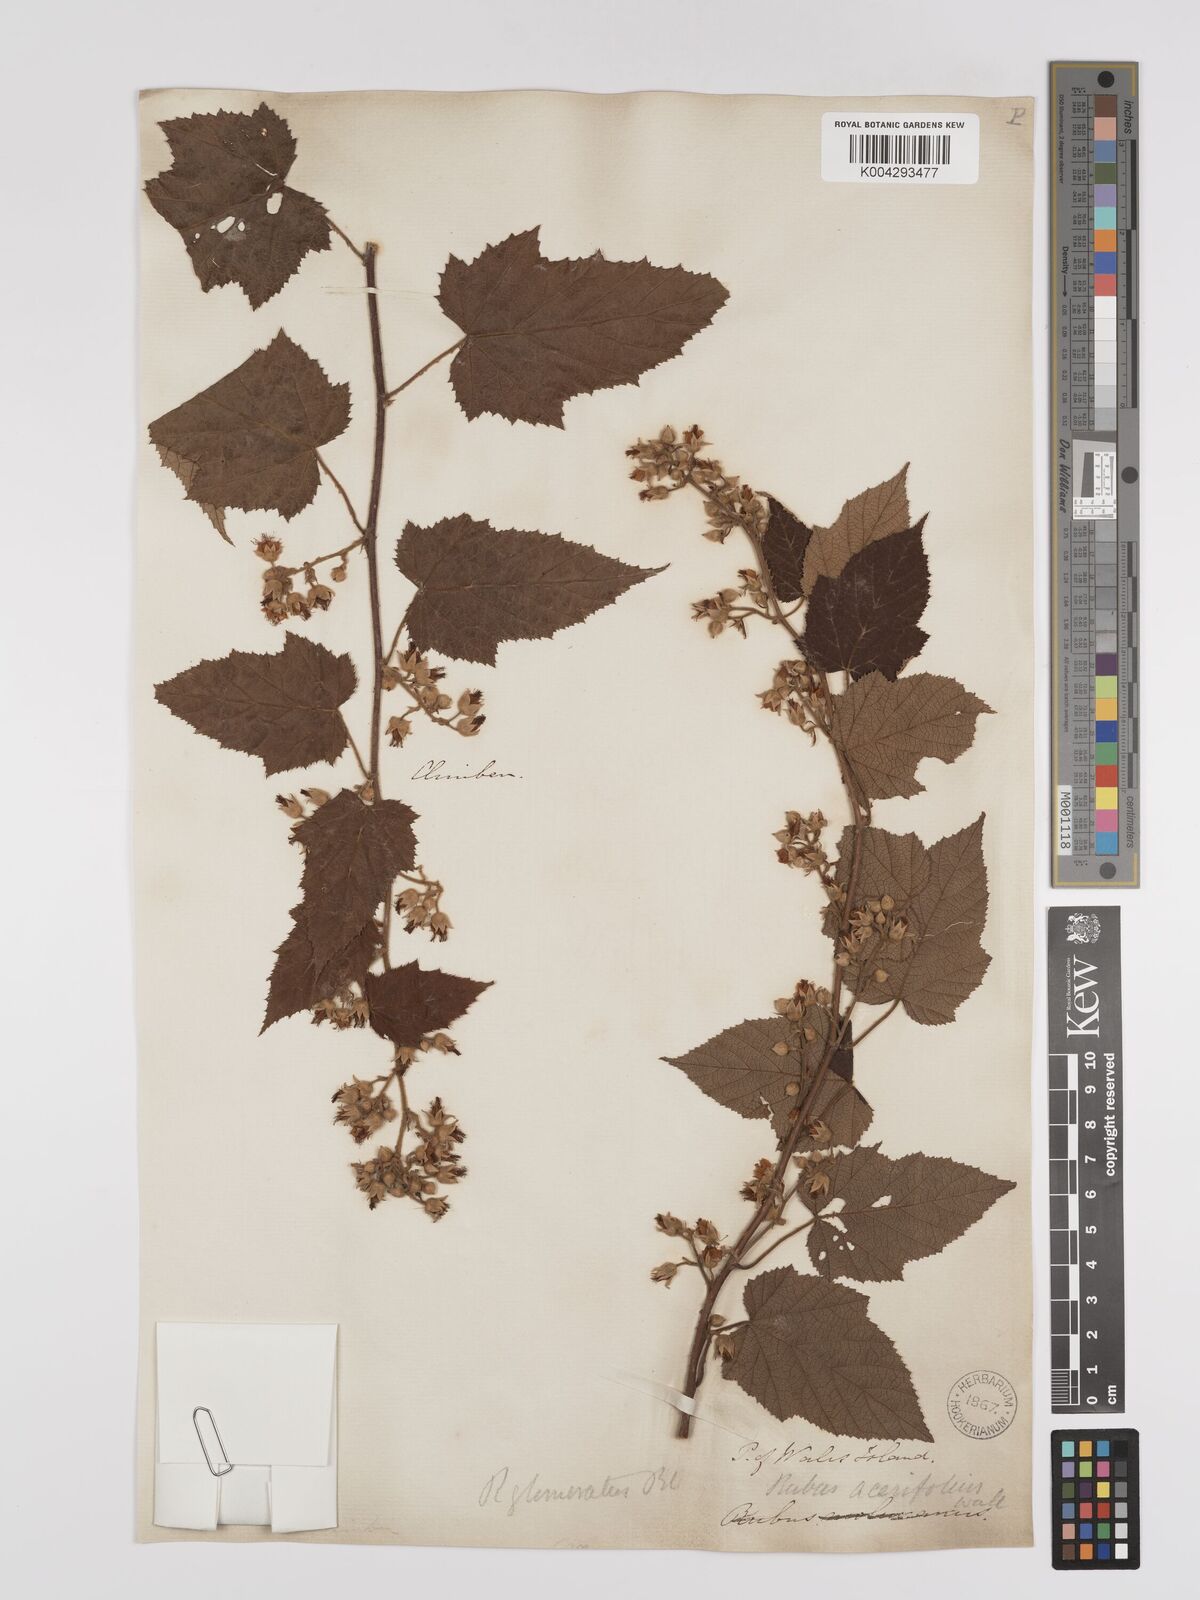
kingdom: Plantae
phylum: Tracheophyta
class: Magnoliopsida
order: Rosales
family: Rosaceae
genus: Rubus
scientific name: Rubus
